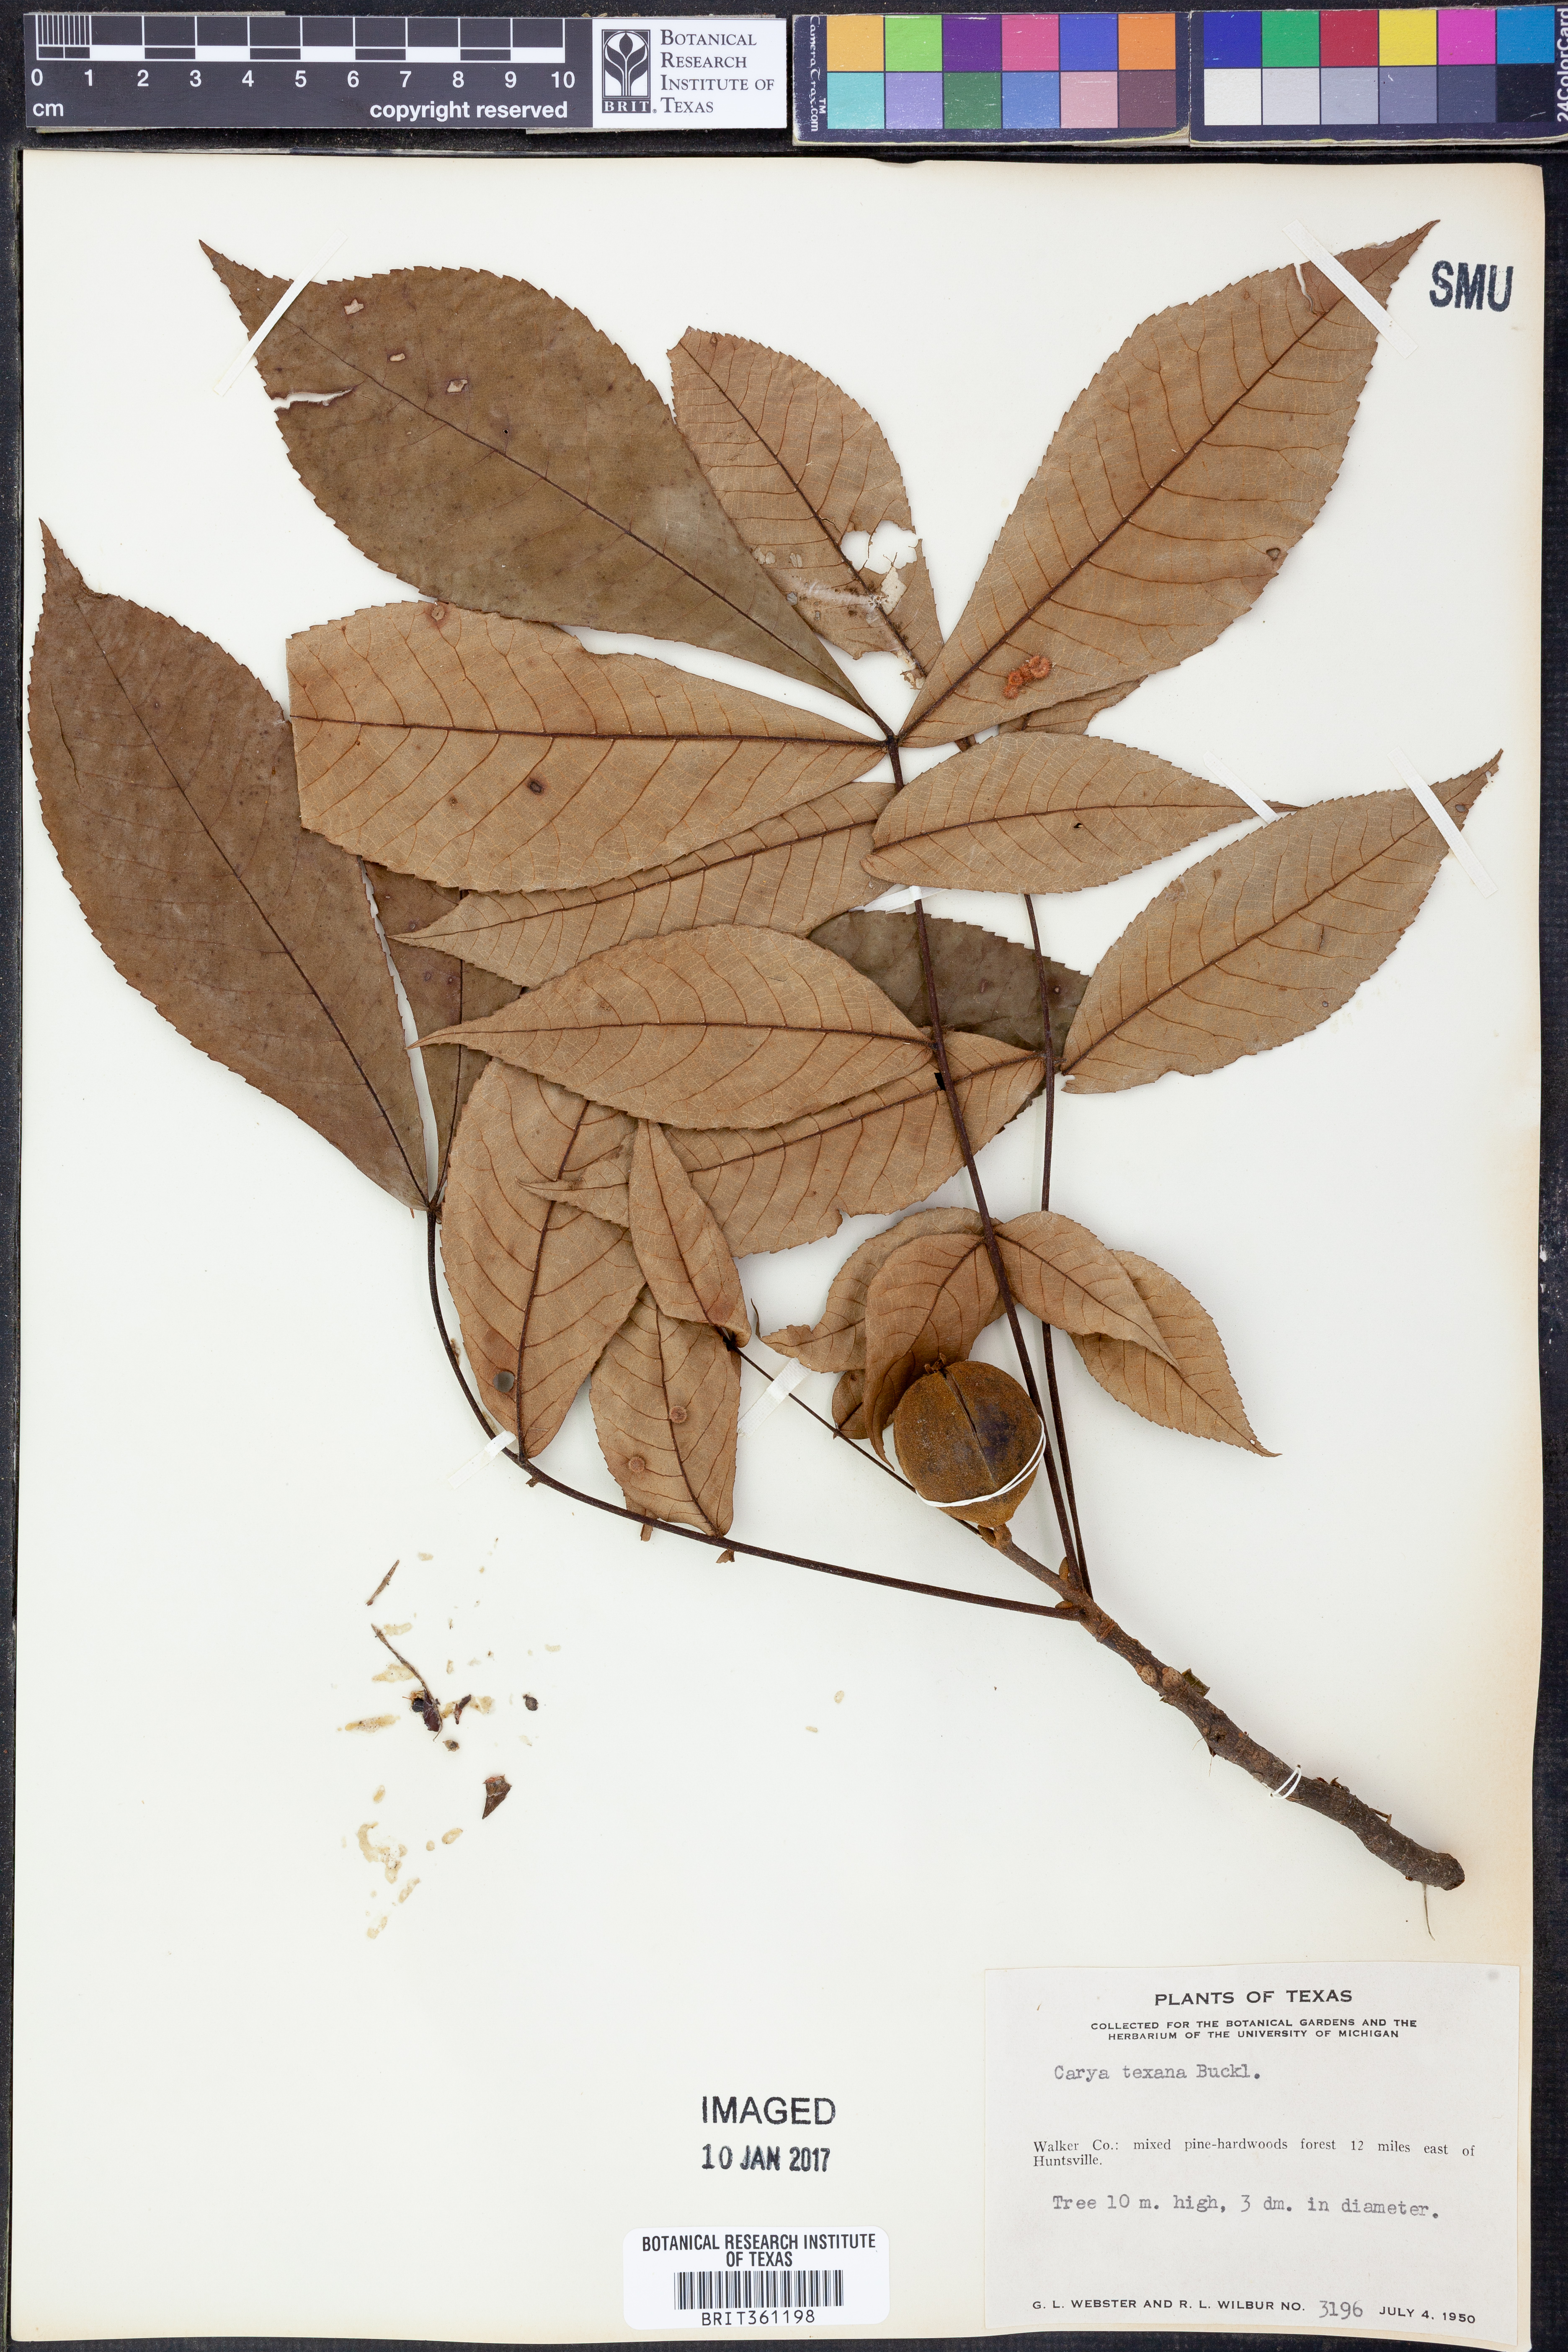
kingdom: Plantae
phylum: Tracheophyta
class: Magnoliopsida
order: Fagales
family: Juglandaceae
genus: Carya
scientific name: Carya texana
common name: Black hickory
